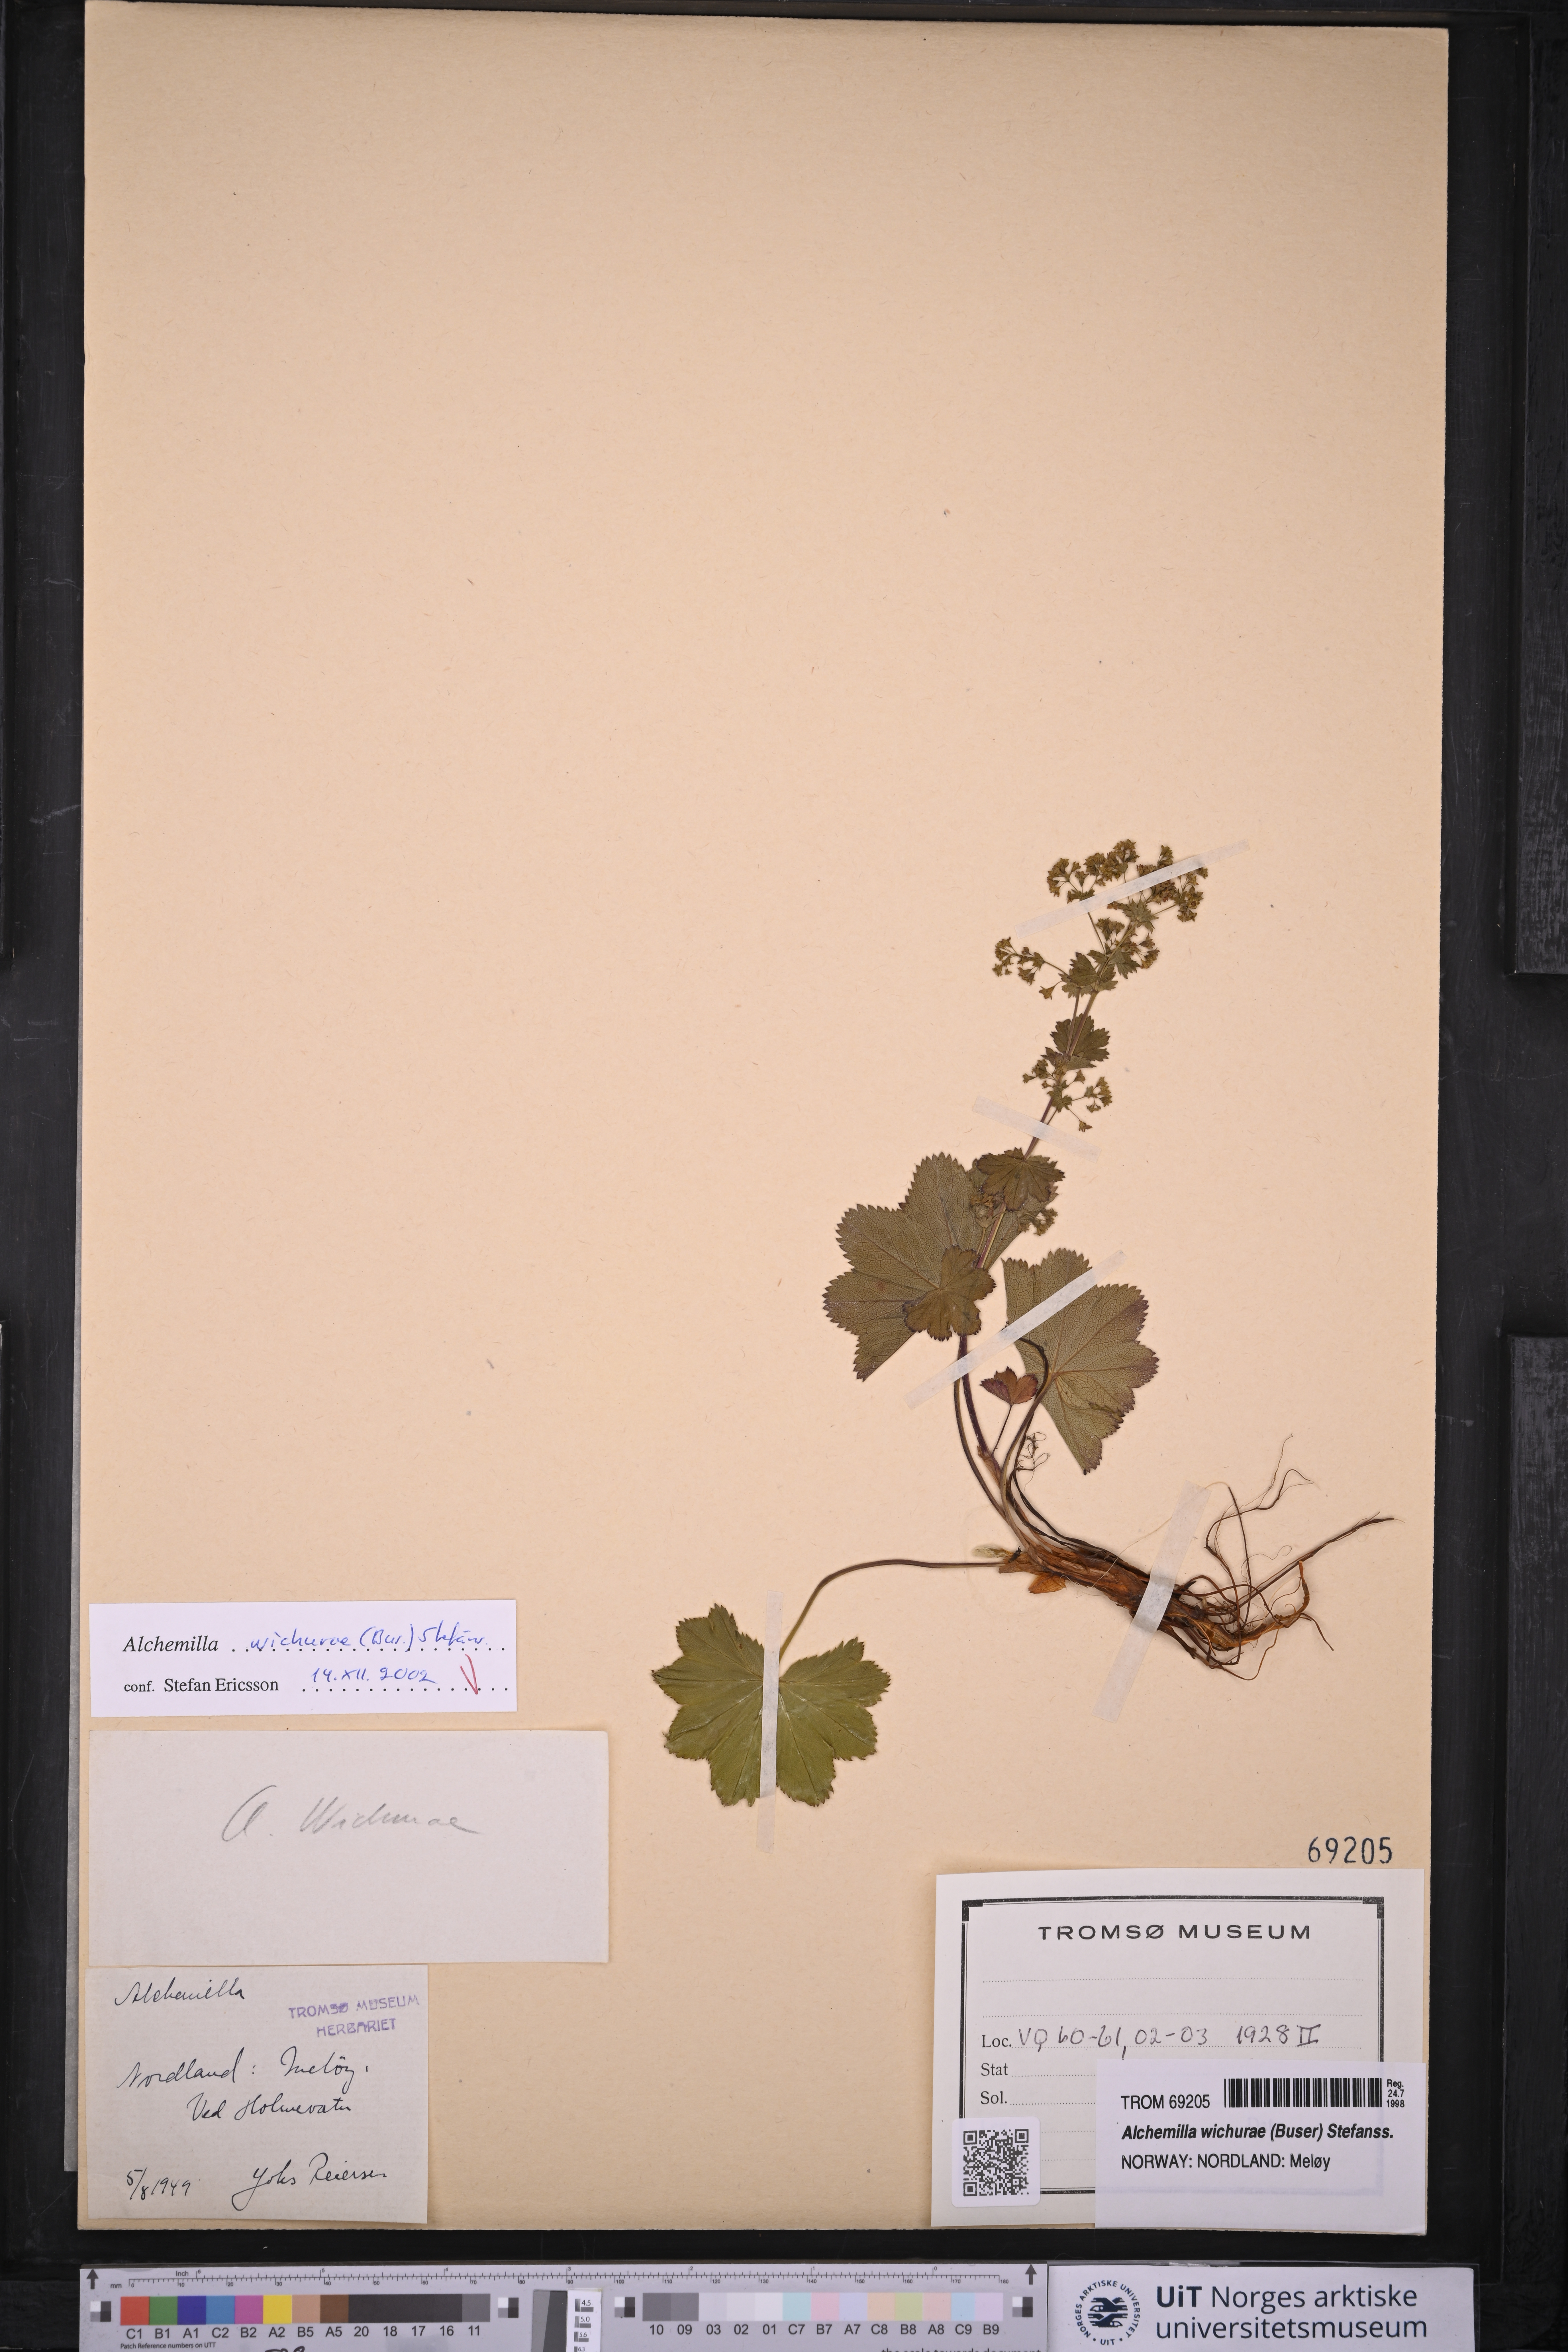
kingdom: Plantae
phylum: Tracheophyta
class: Magnoliopsida
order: Rosales
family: Rosaceae
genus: Alchemilla
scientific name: Alchemilla wichurae
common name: Rock lady's mantle
